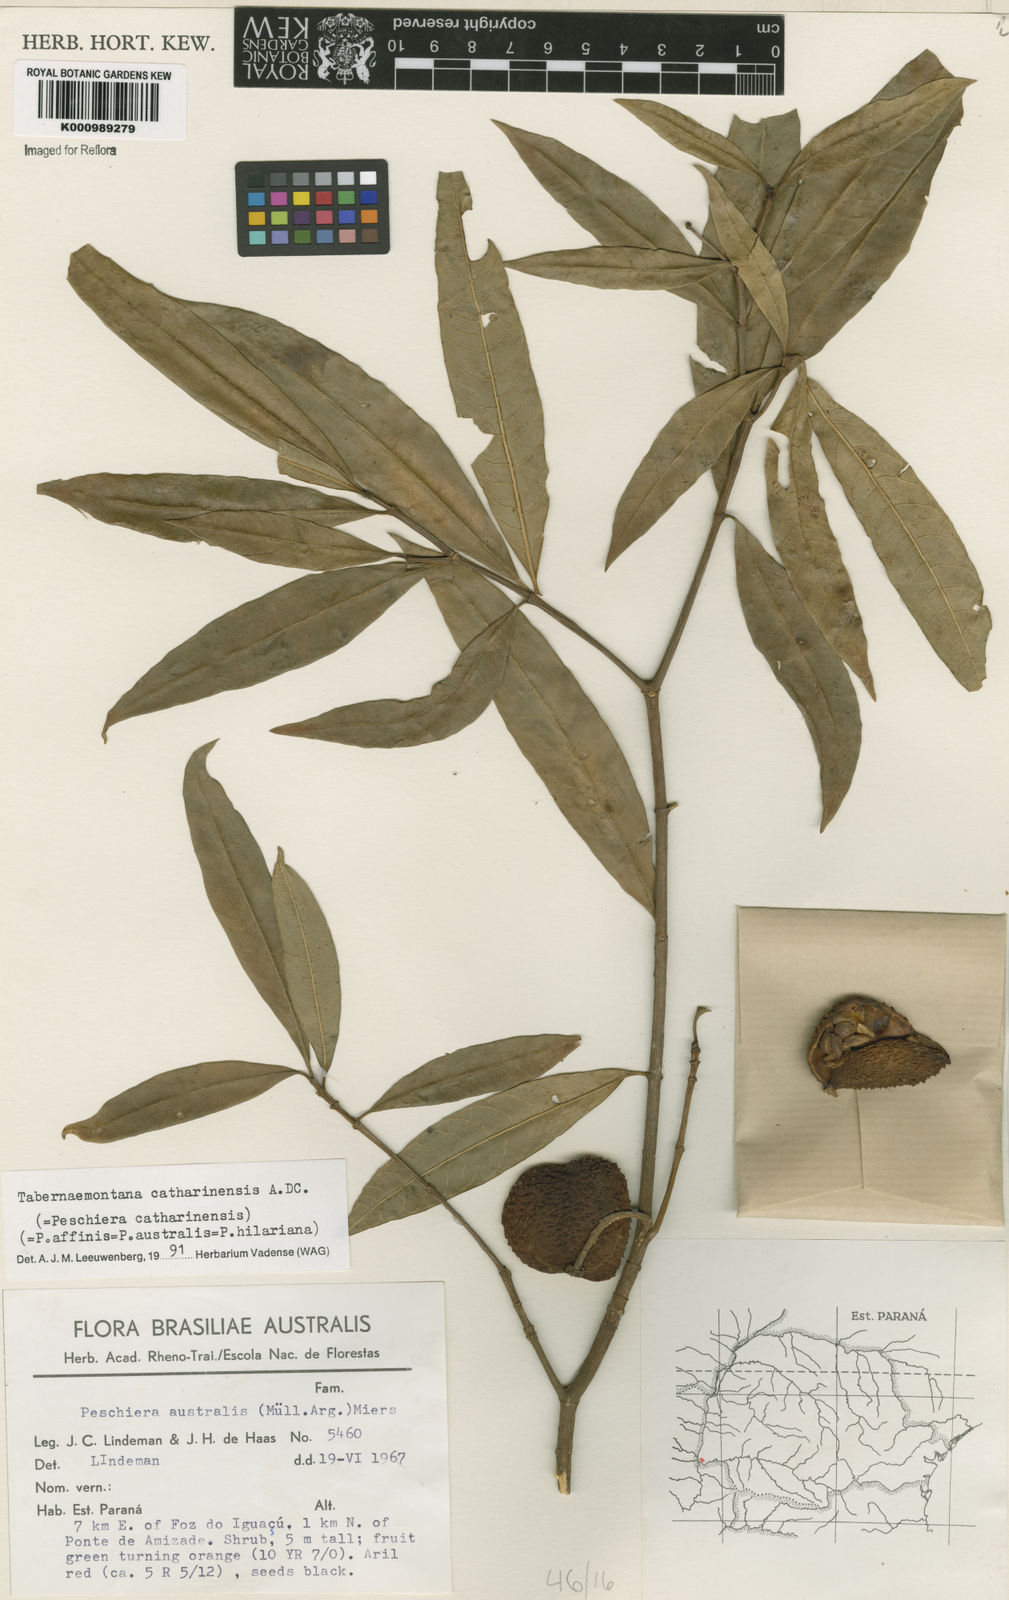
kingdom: Plantae
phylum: Tracheophyta
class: Magnoliopsida
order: Gentianales
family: Apocynaceae
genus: Tabernaemontana
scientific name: Tabernaemontana catharinensis
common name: Pinwheel-flower
